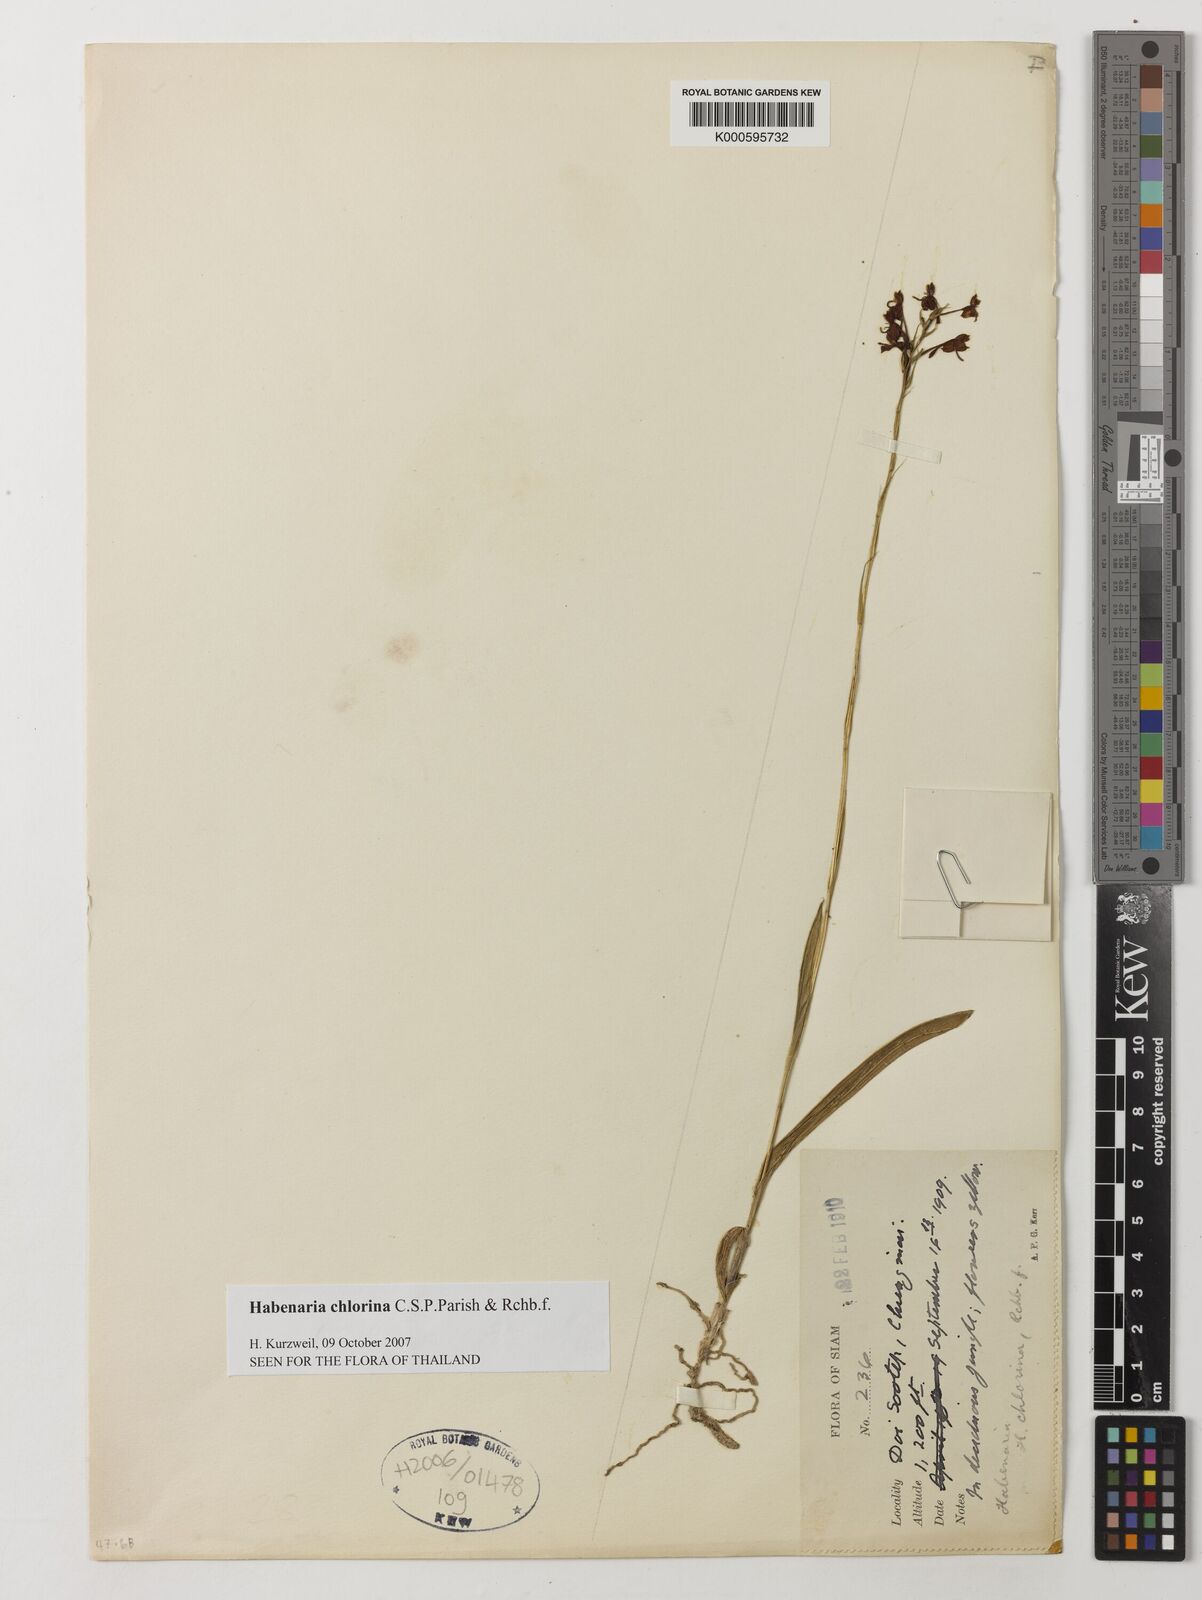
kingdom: Plantae
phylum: Tracheophyta
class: Liliopsida
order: Asparagales
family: Orchidaceae
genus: Habenaria
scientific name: Habenaria chlorina
